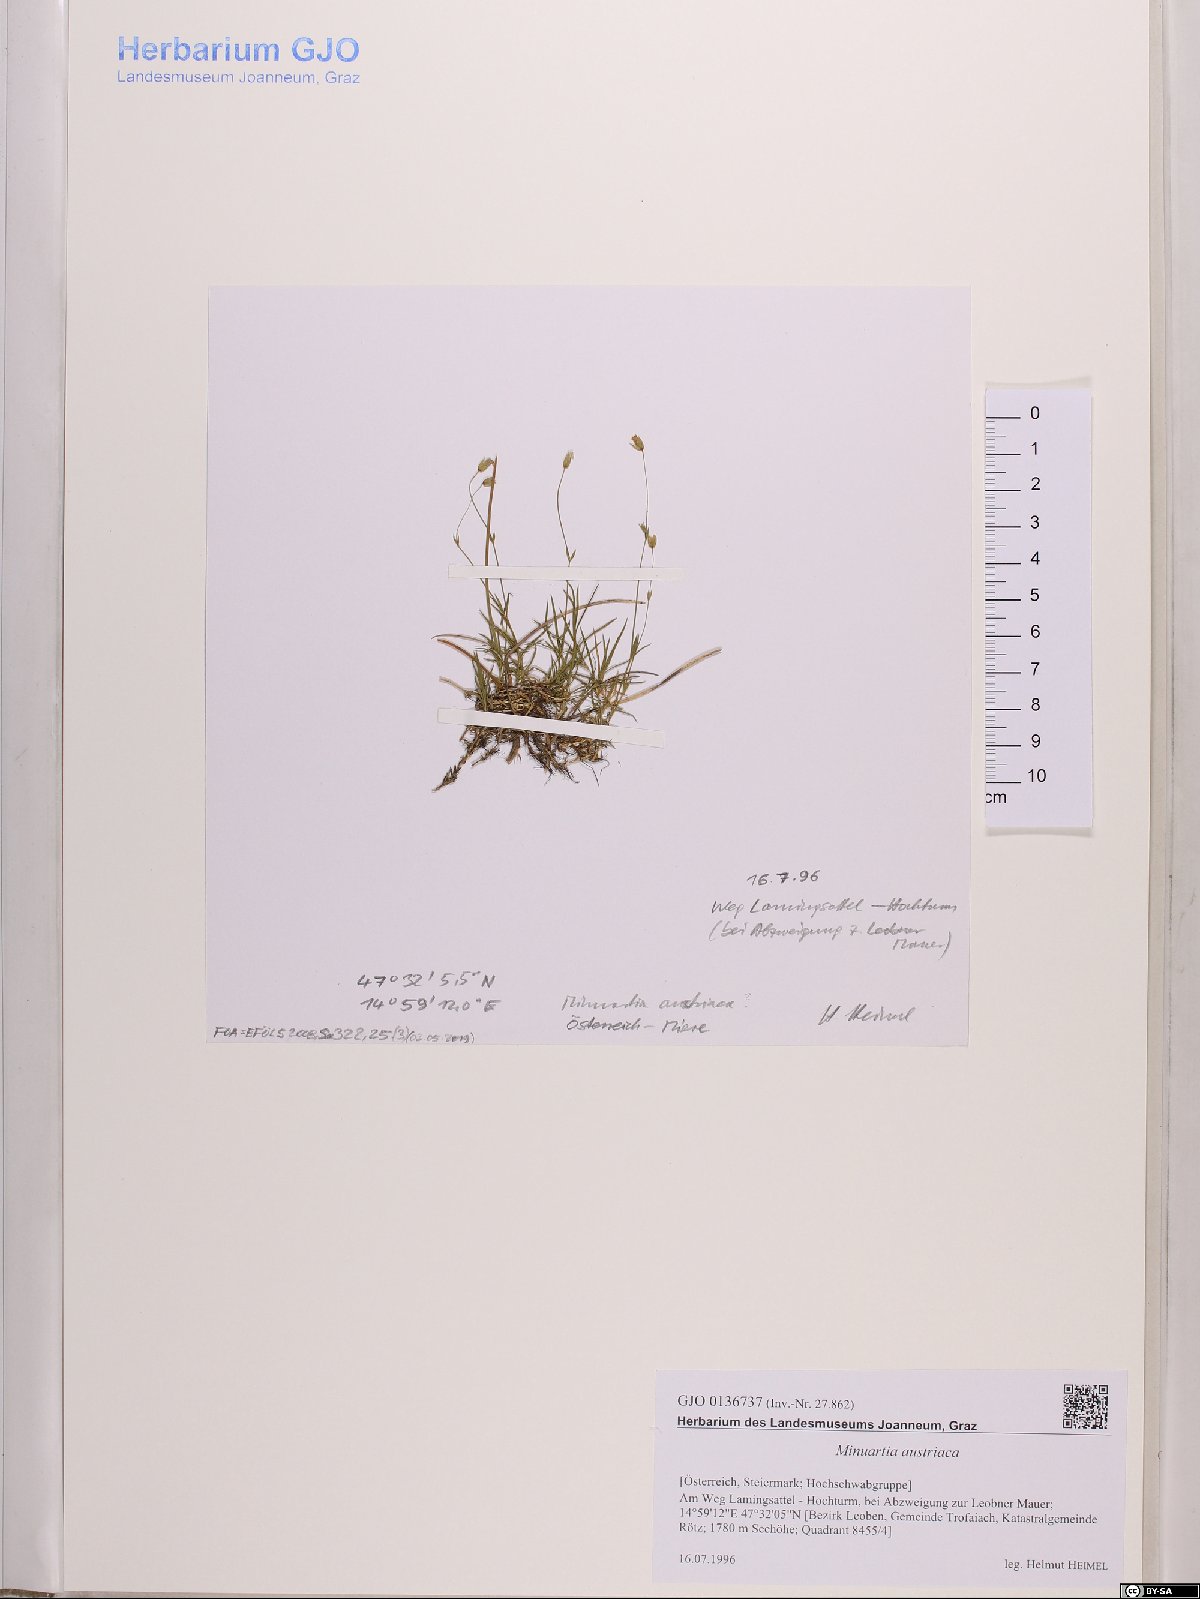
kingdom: Plantae
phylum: Tracheophyta
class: Magnoliopsida
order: Caryophyllales
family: Caryophyllaceae
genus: Sabulina
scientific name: Sabulina austriaca
